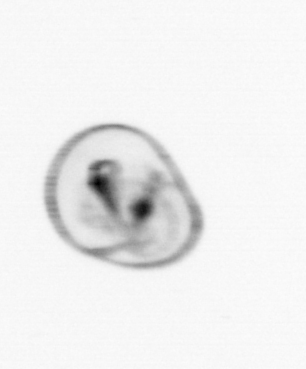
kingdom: Chromista
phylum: Myzozoa
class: Dinophyceae
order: Noctilucales
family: Noctilucaceae
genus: Noctiluca
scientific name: Noctiluca scintillans
